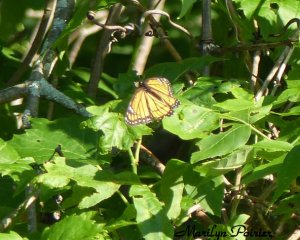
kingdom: Animalia
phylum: Arthropoda
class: Insecta
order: Lepidoptera
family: Nymphalidae
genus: Limenitis
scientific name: Limenitis archippus
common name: Viceroy
